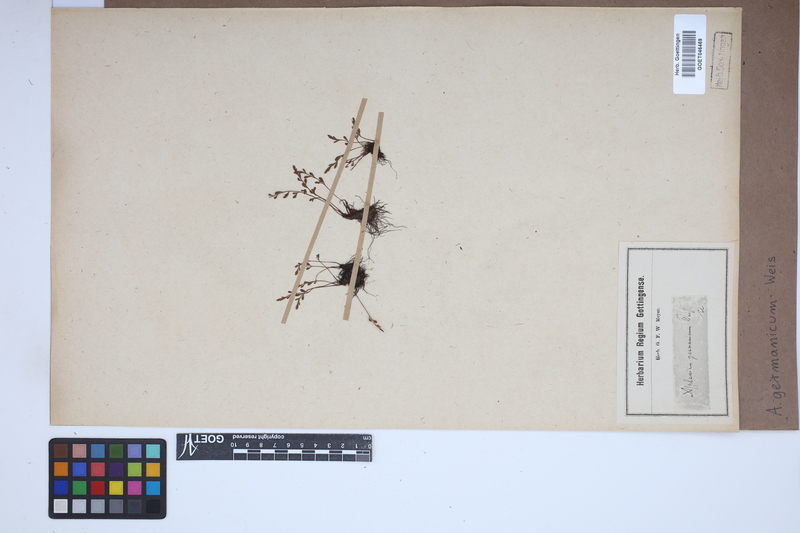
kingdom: Plantae
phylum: Tracheophyta
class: Polypodiopsida
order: Polypodiales
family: Aspleniaceae
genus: Asplenium
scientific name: Asplenium
